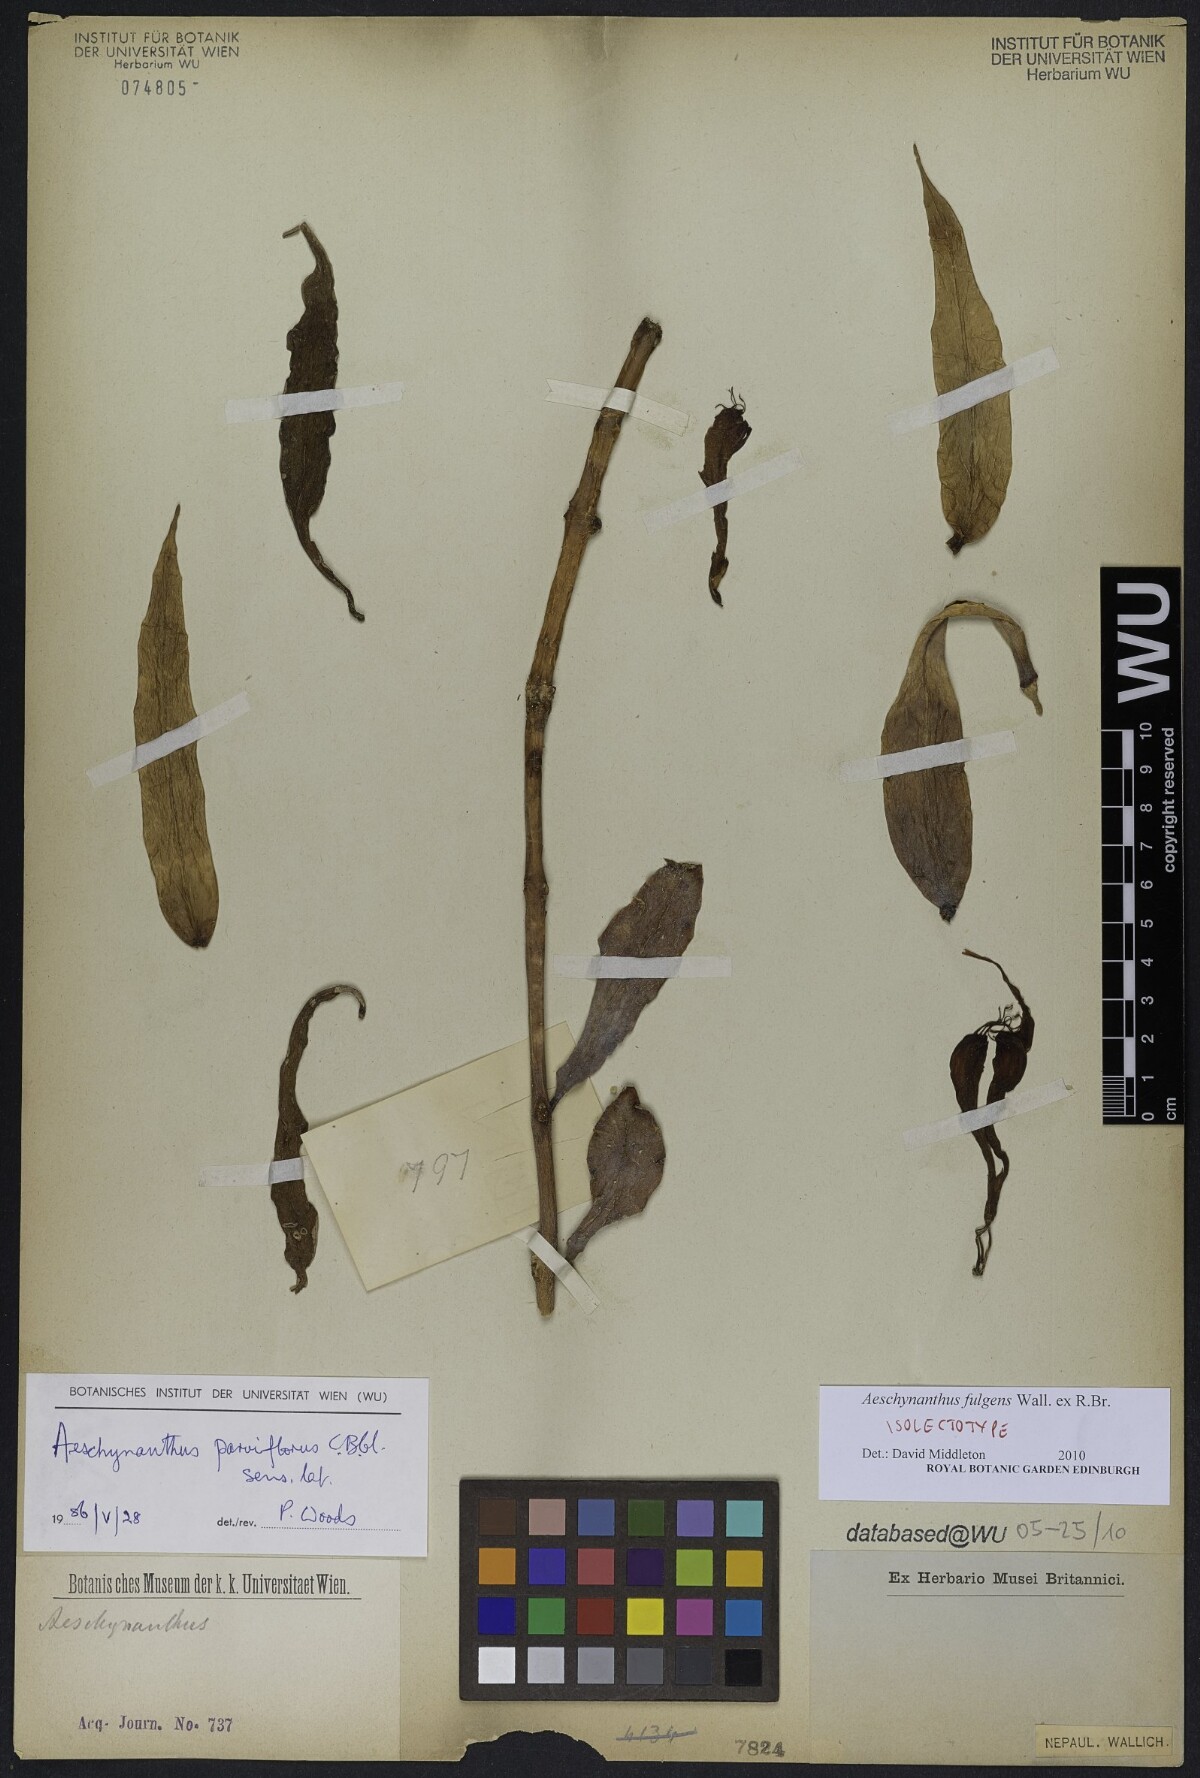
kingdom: Plantae
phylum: Tracheophyta
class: Magnoliopsida
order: Lamiales
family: Gesneriaceae
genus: Aeschynanthus
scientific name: Aeschynanthus fulgens
